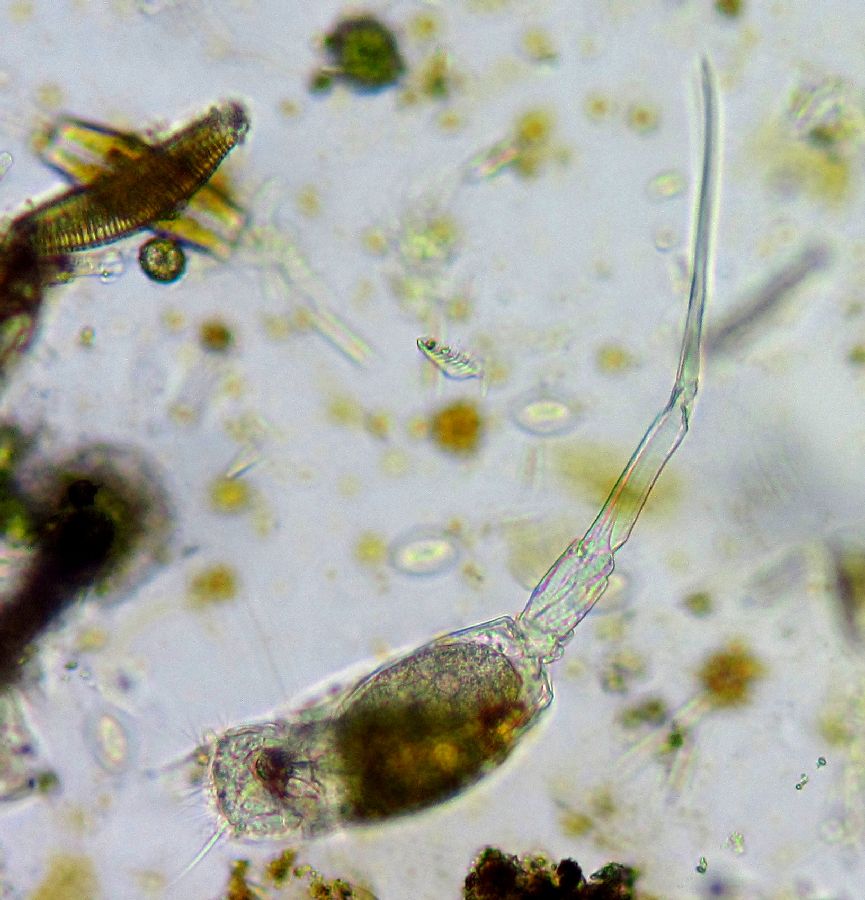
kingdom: Animalia
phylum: Rotifera
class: Eurotatoria
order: Ploima
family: Scaridiidae
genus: Scaridium
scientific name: Scaridium longicaudum
